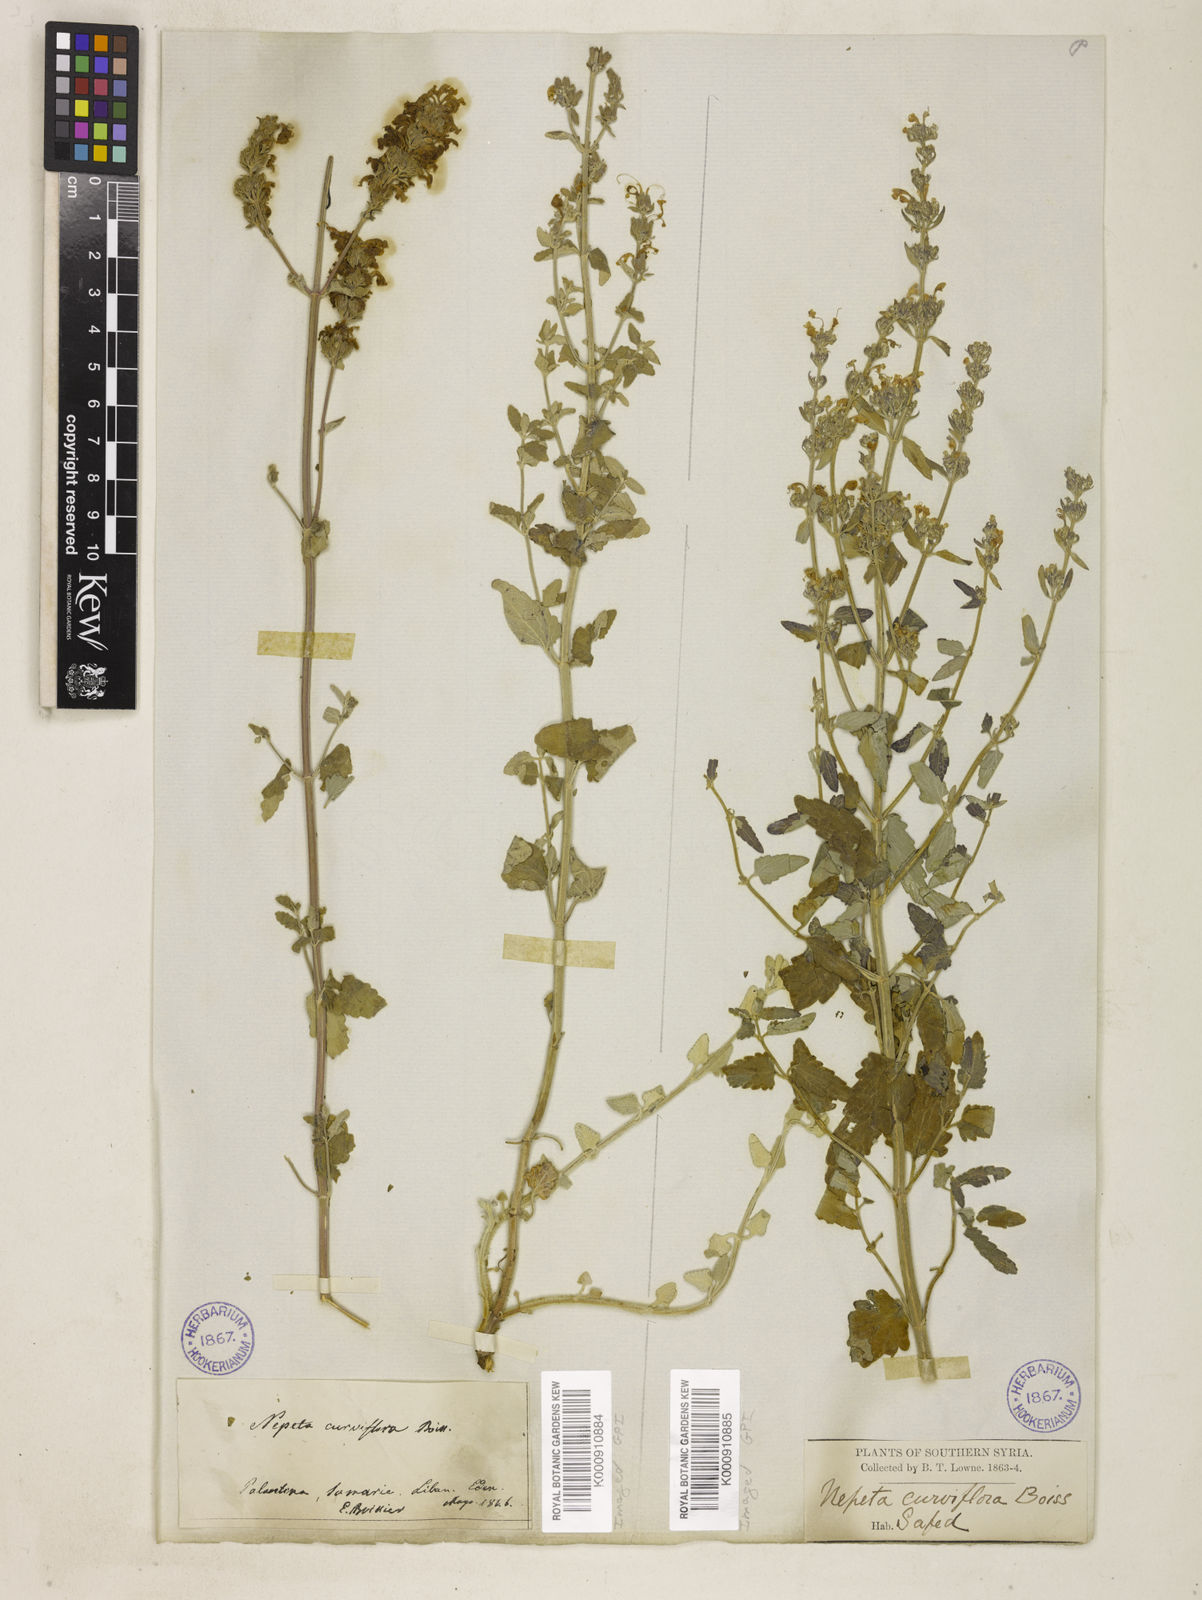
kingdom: Plantae
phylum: Tracheophyta
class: Magnoliopsida
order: Lamiales
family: Lamiaceae
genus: Nepeta
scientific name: Nepeta curviflora
